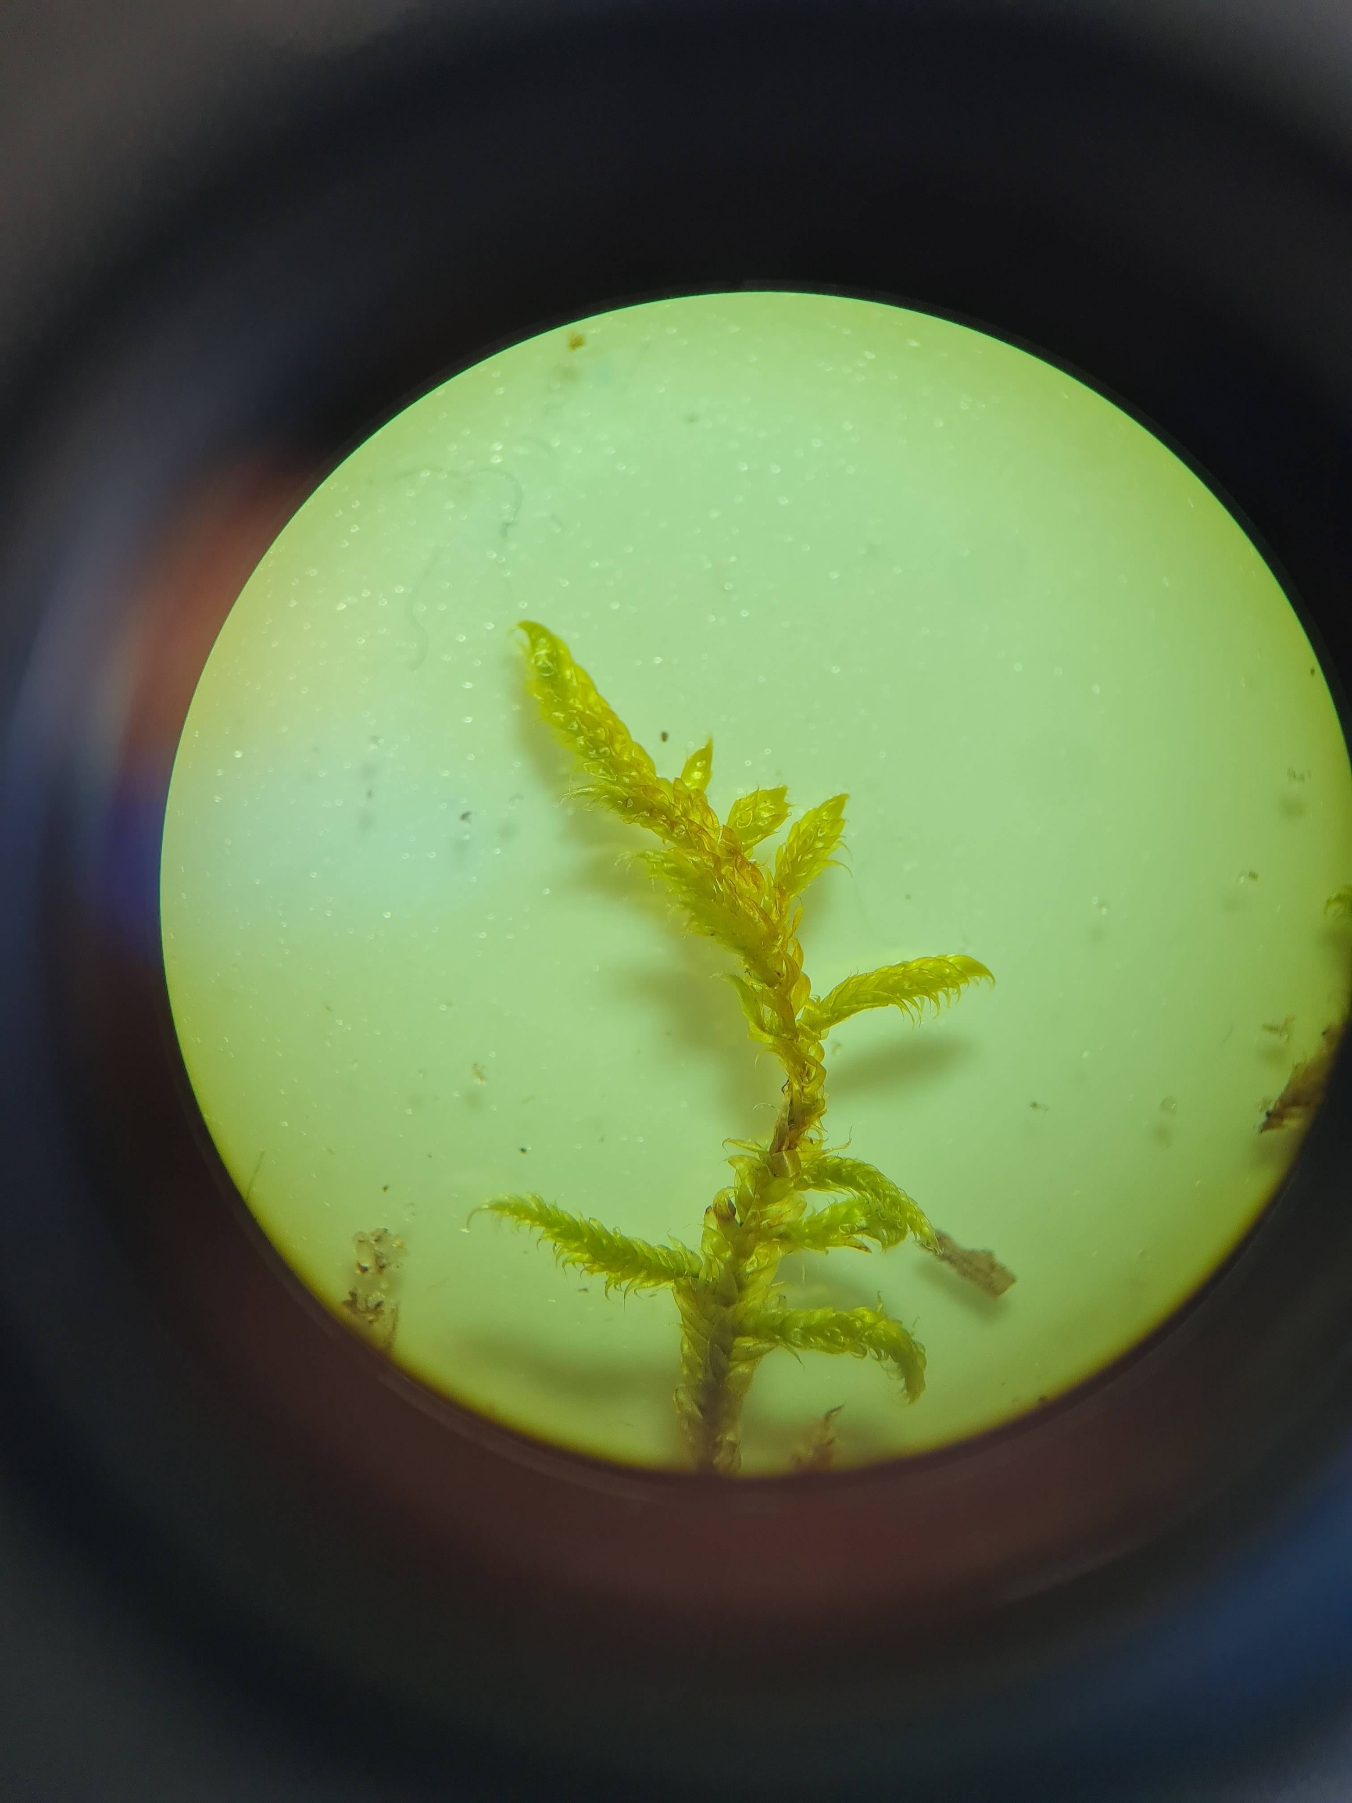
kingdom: Plantae
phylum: Bryophyta
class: Bryopsida
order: Hypnales
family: Hypnaceae
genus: Hypnum
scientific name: Hypnum cupressiforme
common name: Almindelig cypresmos
